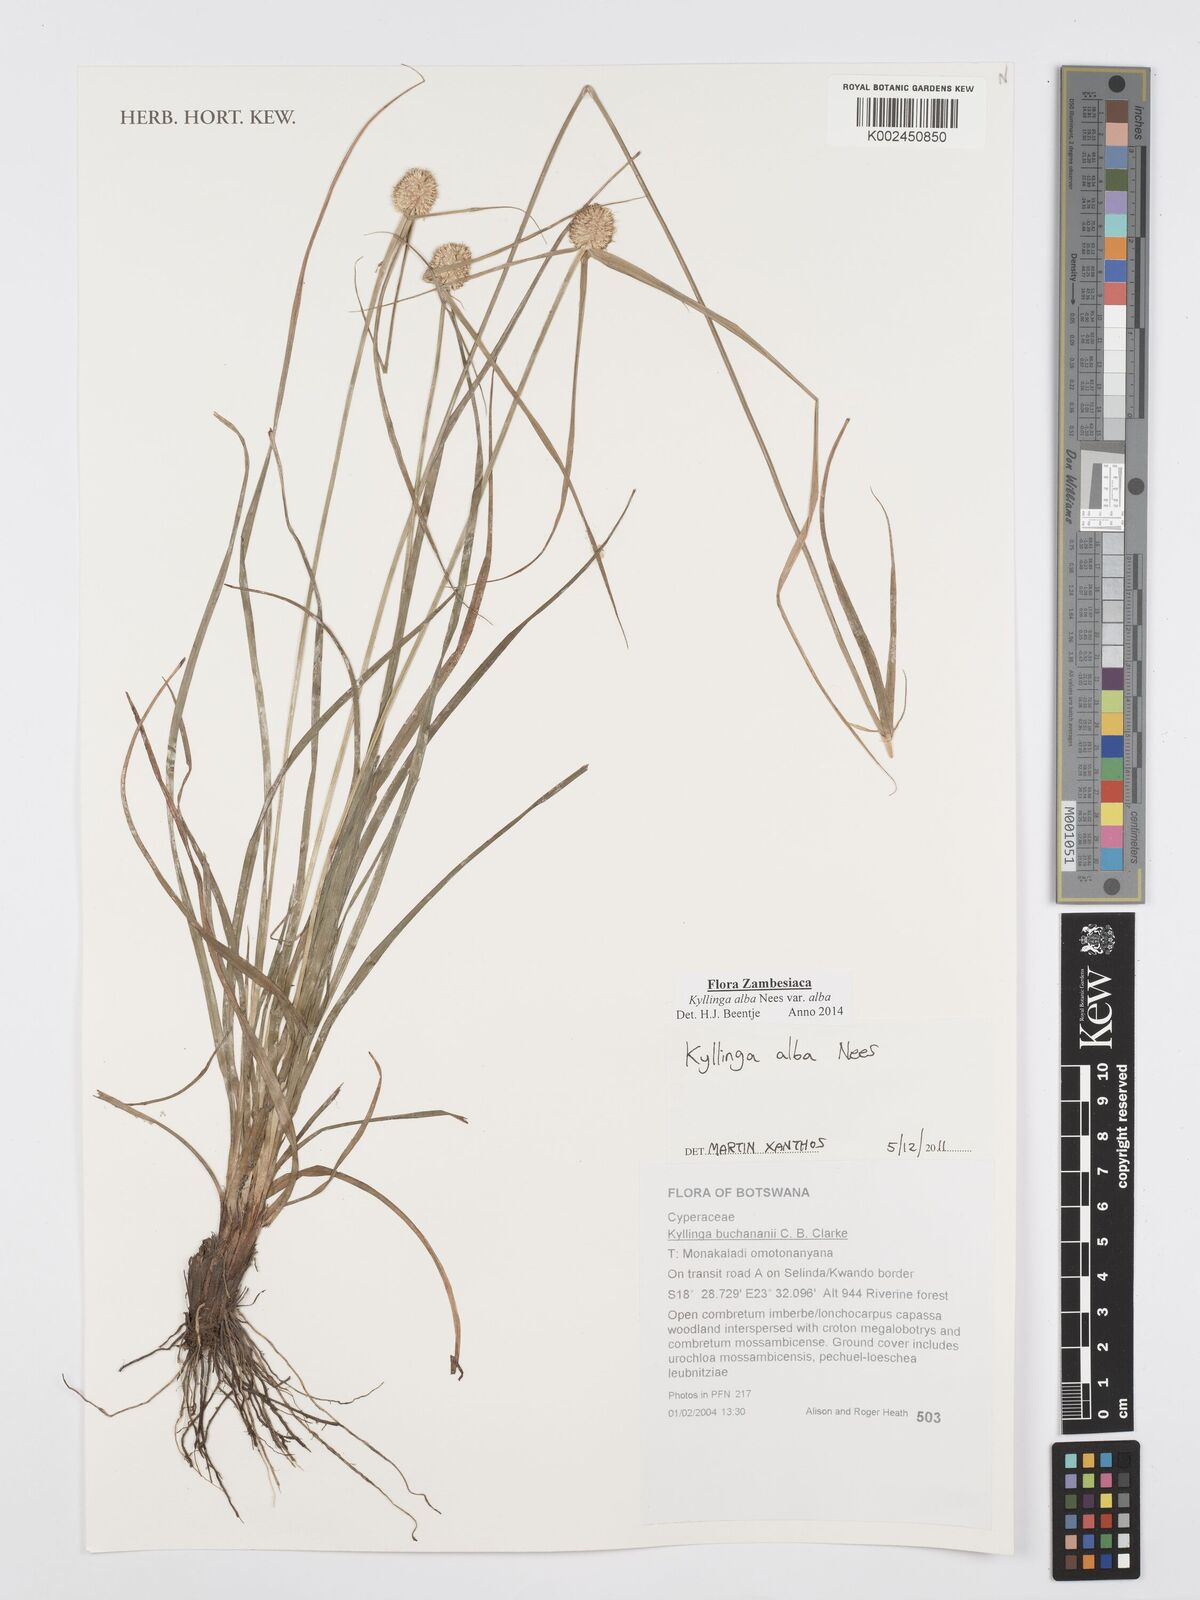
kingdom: Plantae
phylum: Tracheophyta
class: Liliopsida
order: Poales
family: Cyperaceae
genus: Cyperus
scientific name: Cyperus
